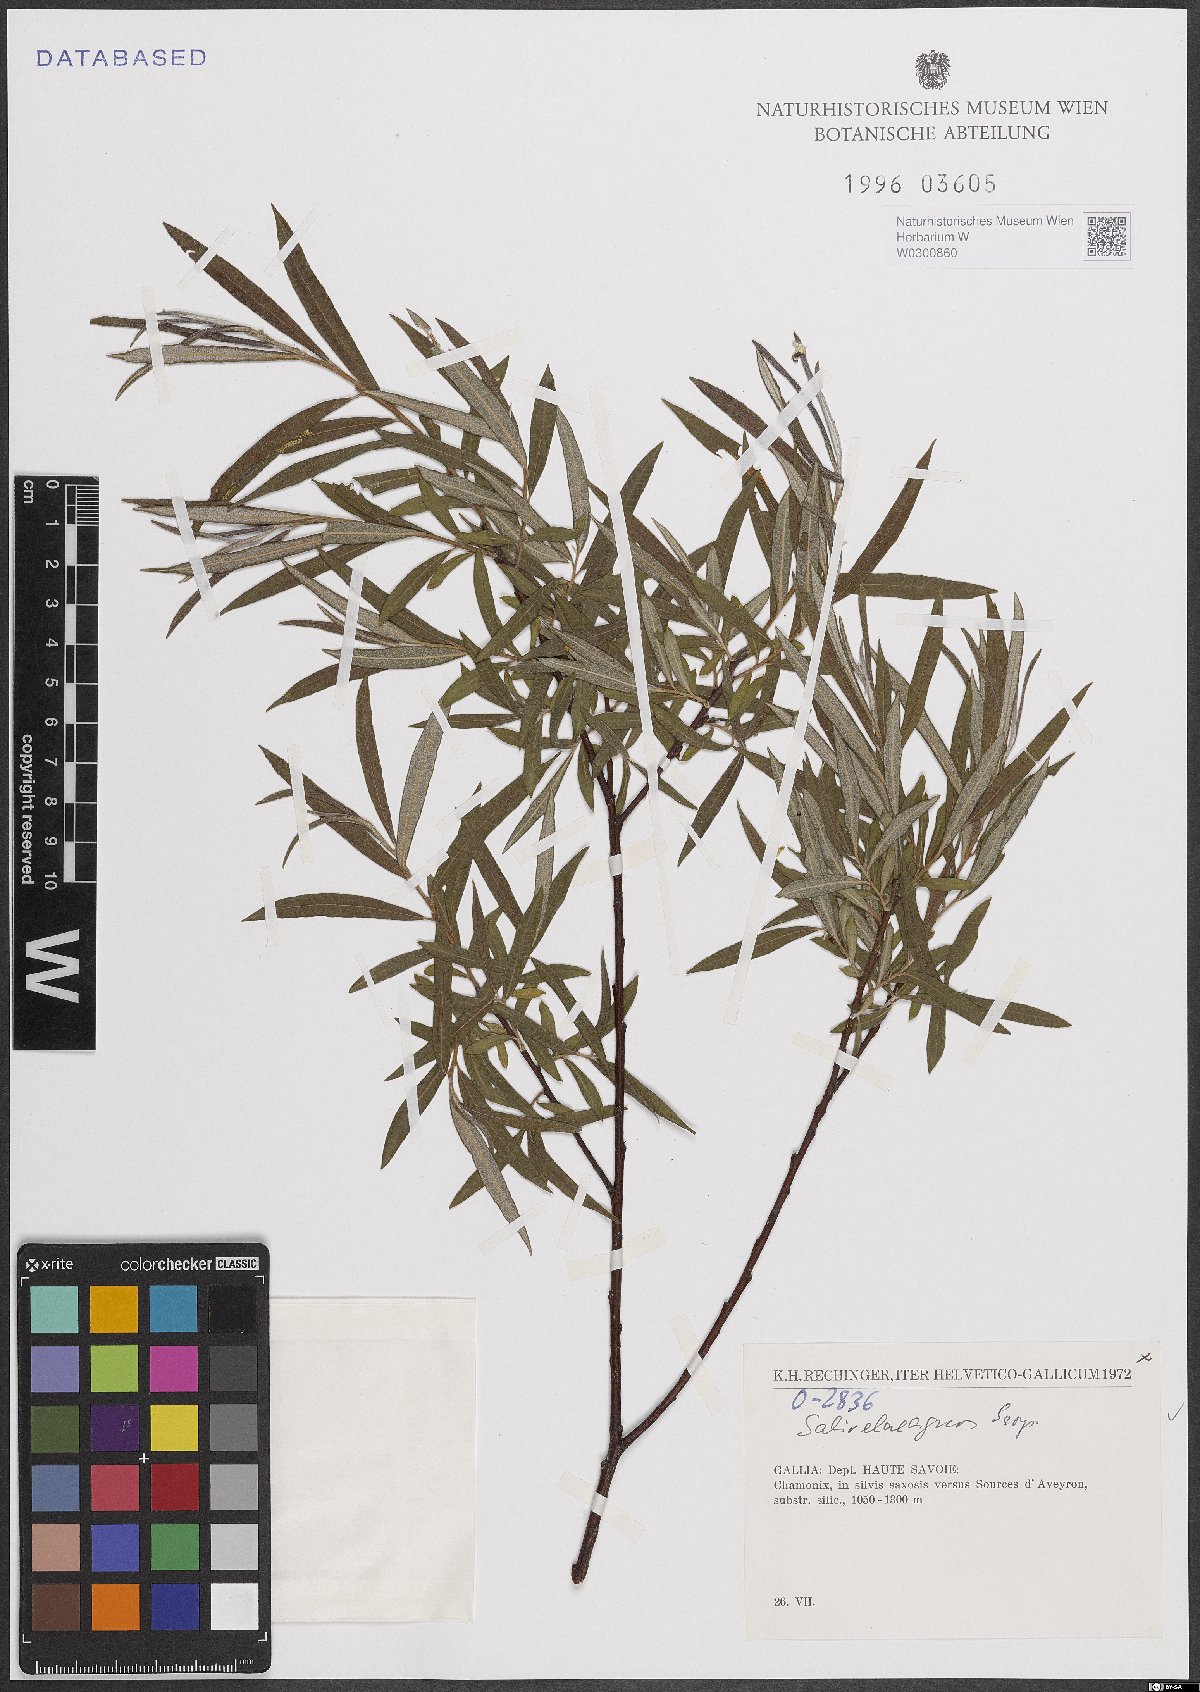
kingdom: Plantae
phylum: Tracheophyta
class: Magnoliopsida
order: Malpighiales
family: Salicaceae
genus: Salix
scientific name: Salix eleagnos
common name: Elaeagnus willow
